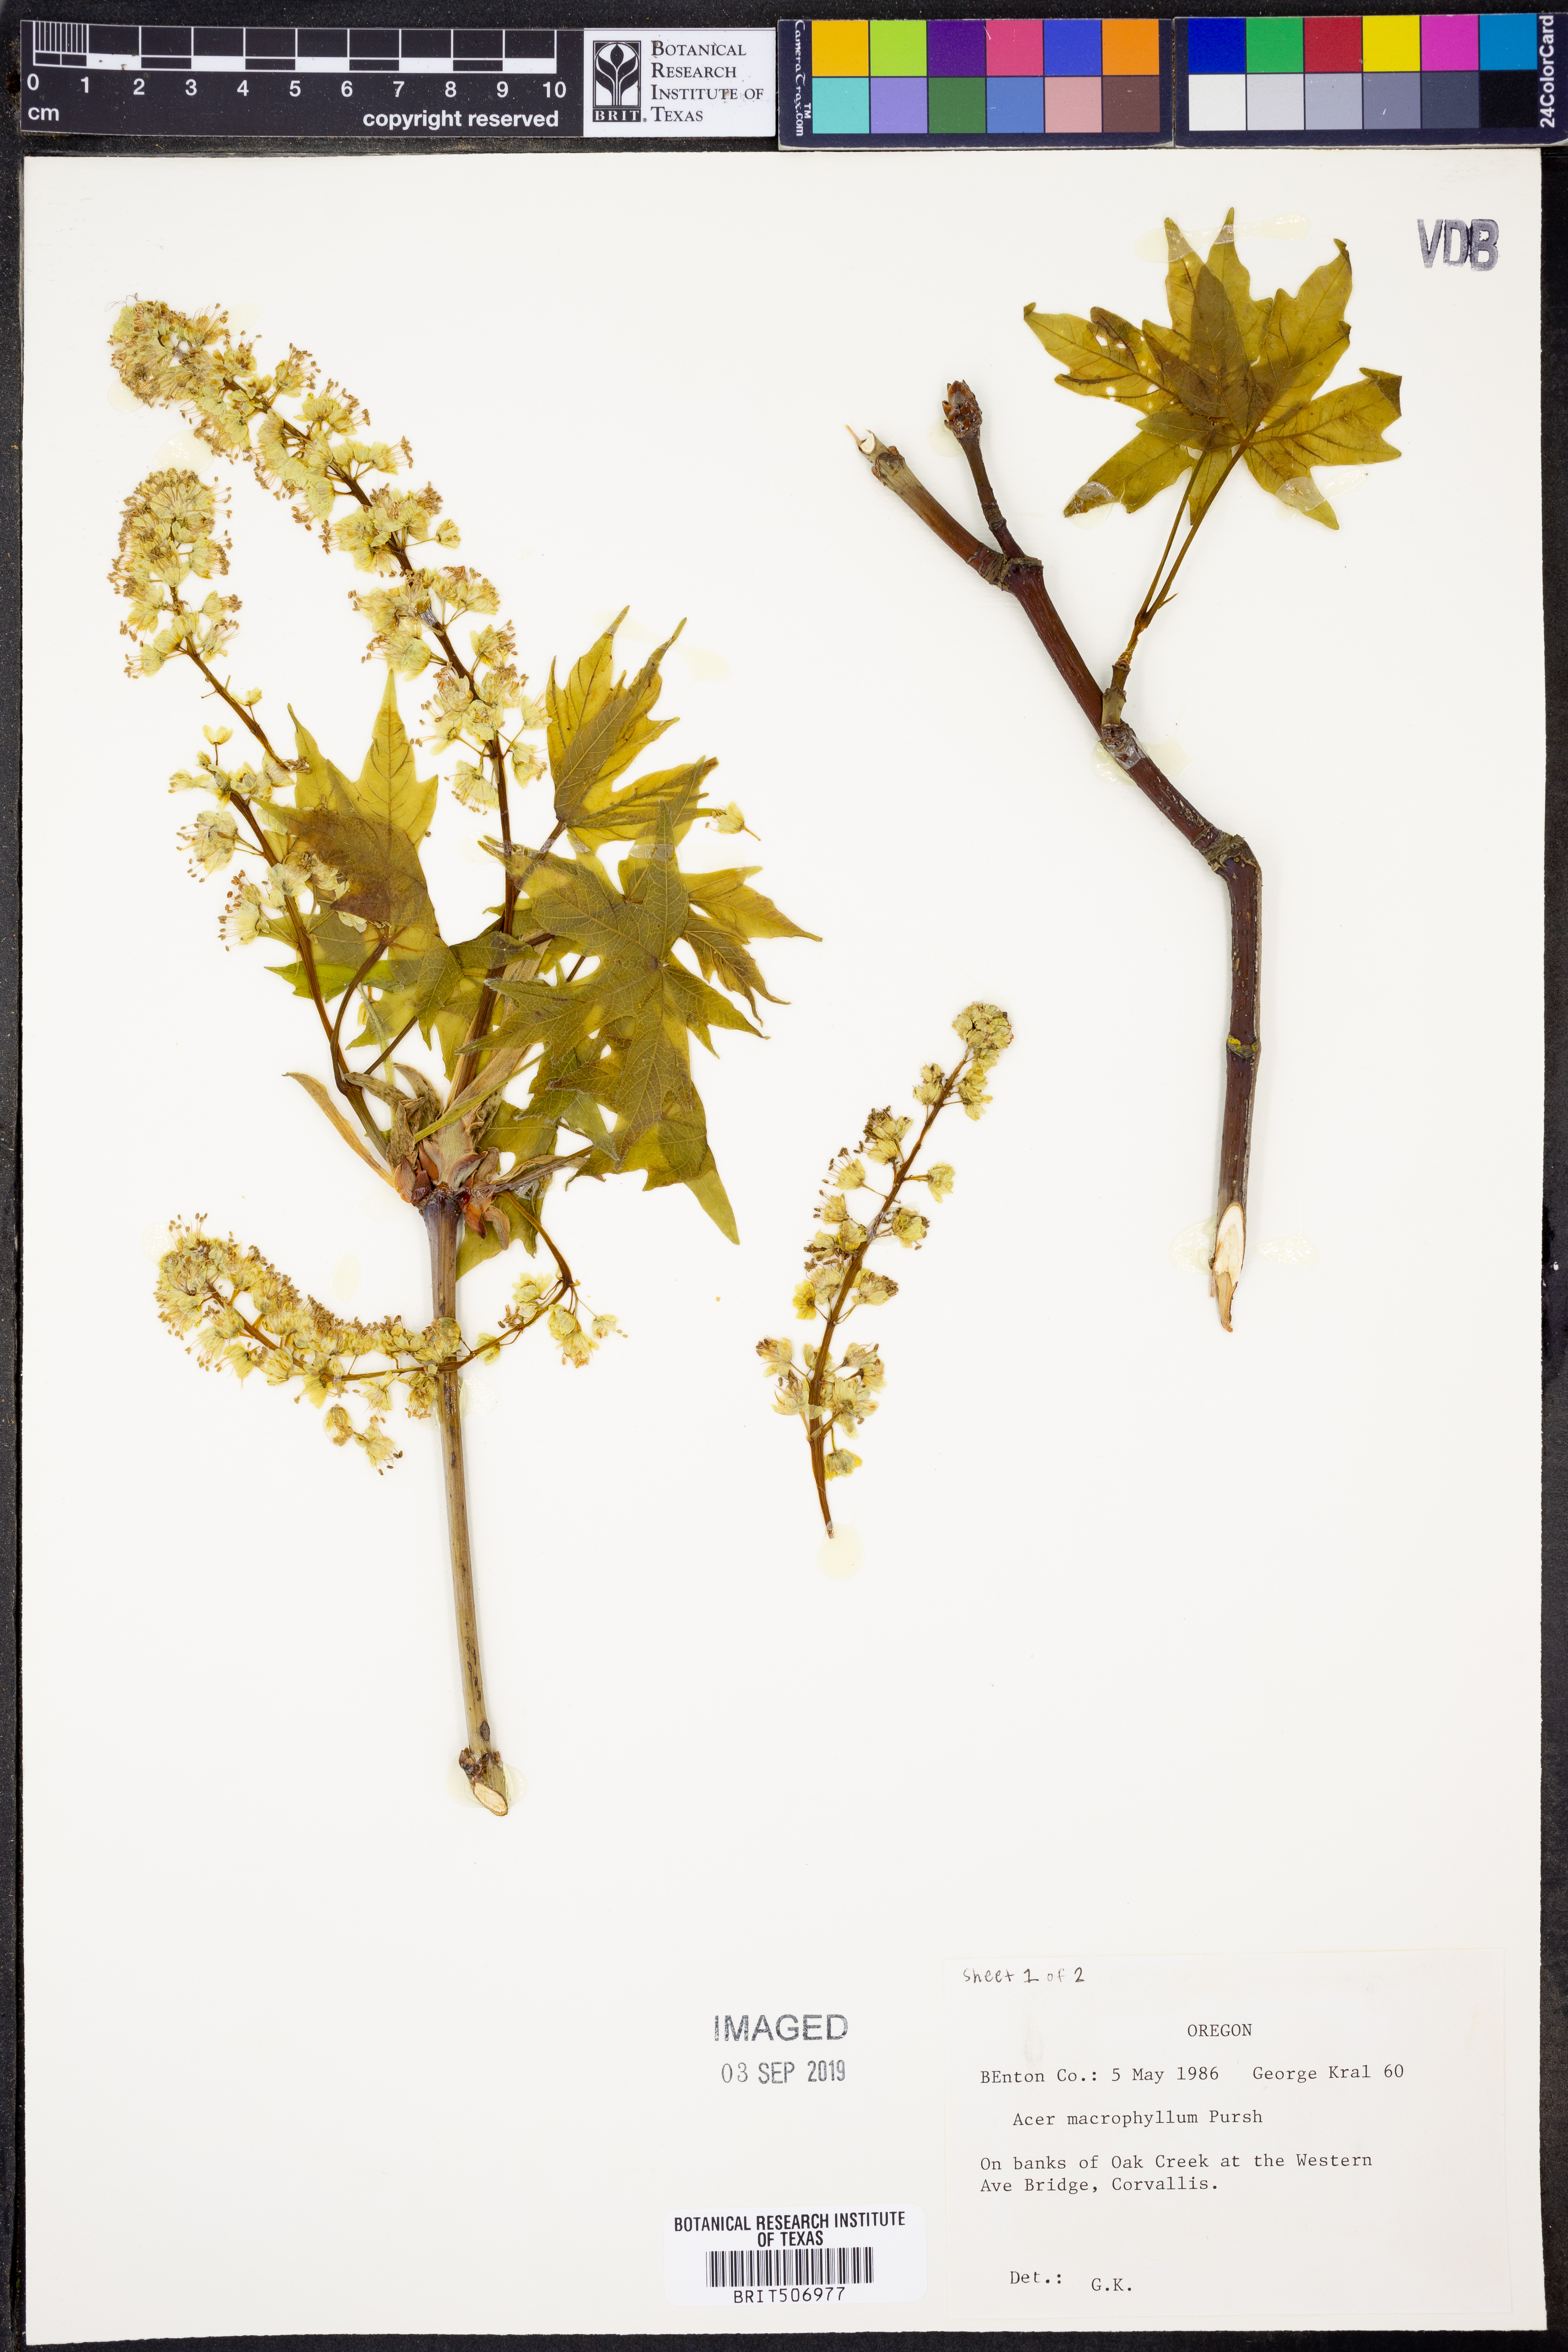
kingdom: Plantae
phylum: Tracheophyta
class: Magnoliopsida
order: Sapindales
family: Sapindaceae
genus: Acer
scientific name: Acer macrophyllum
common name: Oregon maple
